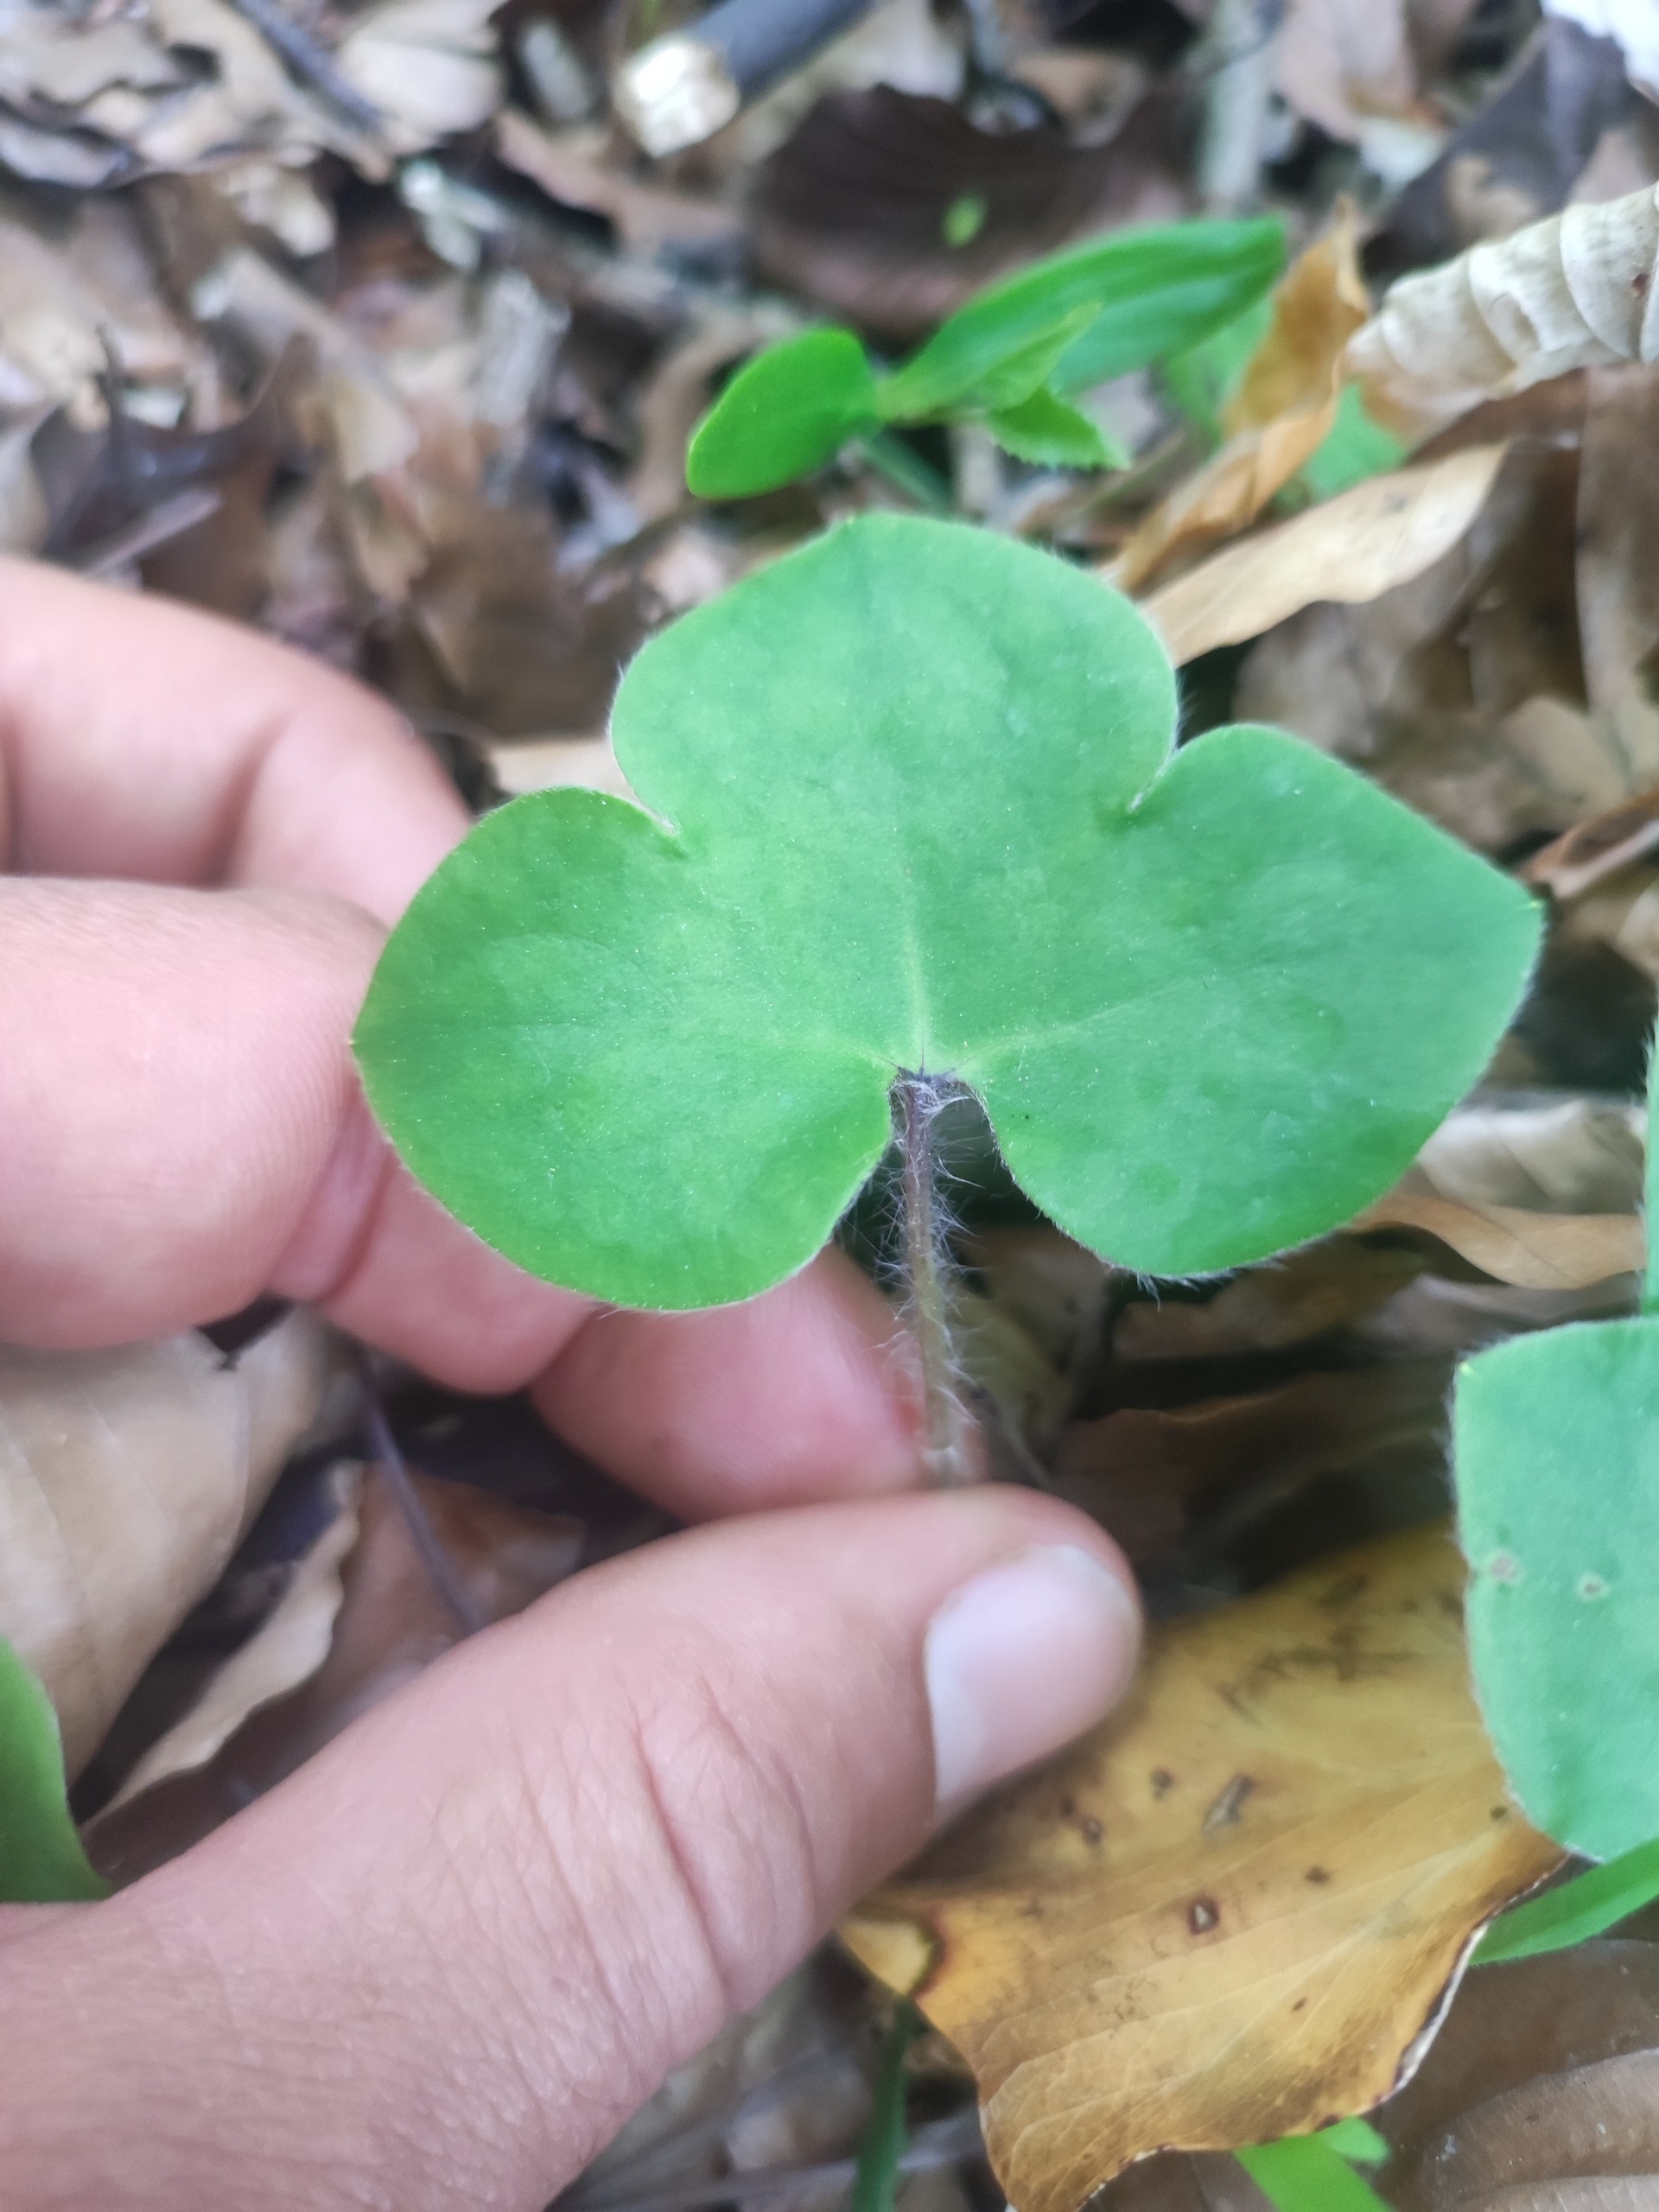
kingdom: Plantae
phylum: Tracheophyta
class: Magnoliopsida
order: Ranunculales
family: Ranunculaceae
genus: Hepatica
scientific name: Hepatica nobilis
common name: Blå anemone
